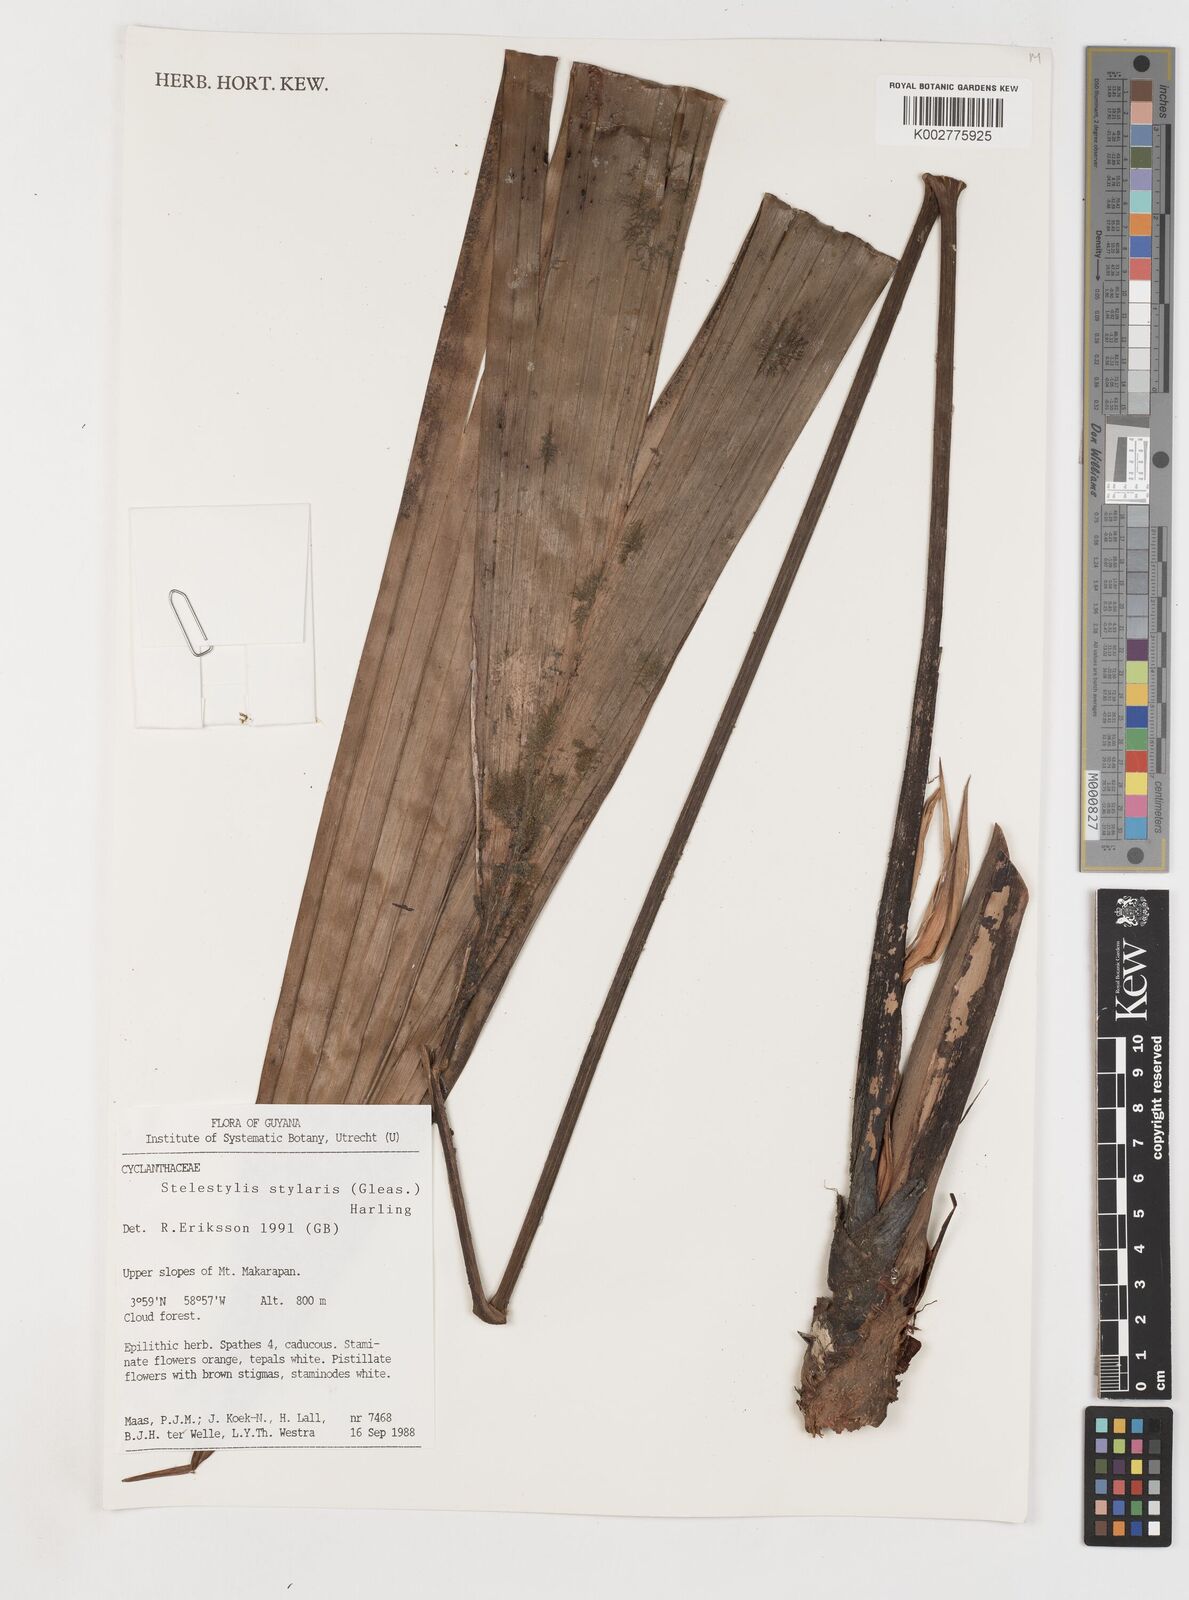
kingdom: Plantae
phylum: Tracheophyta
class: Liliopsida
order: Pandanales
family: Cyclanthaceae
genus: Stelestylis
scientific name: Stelestylis stylaris
